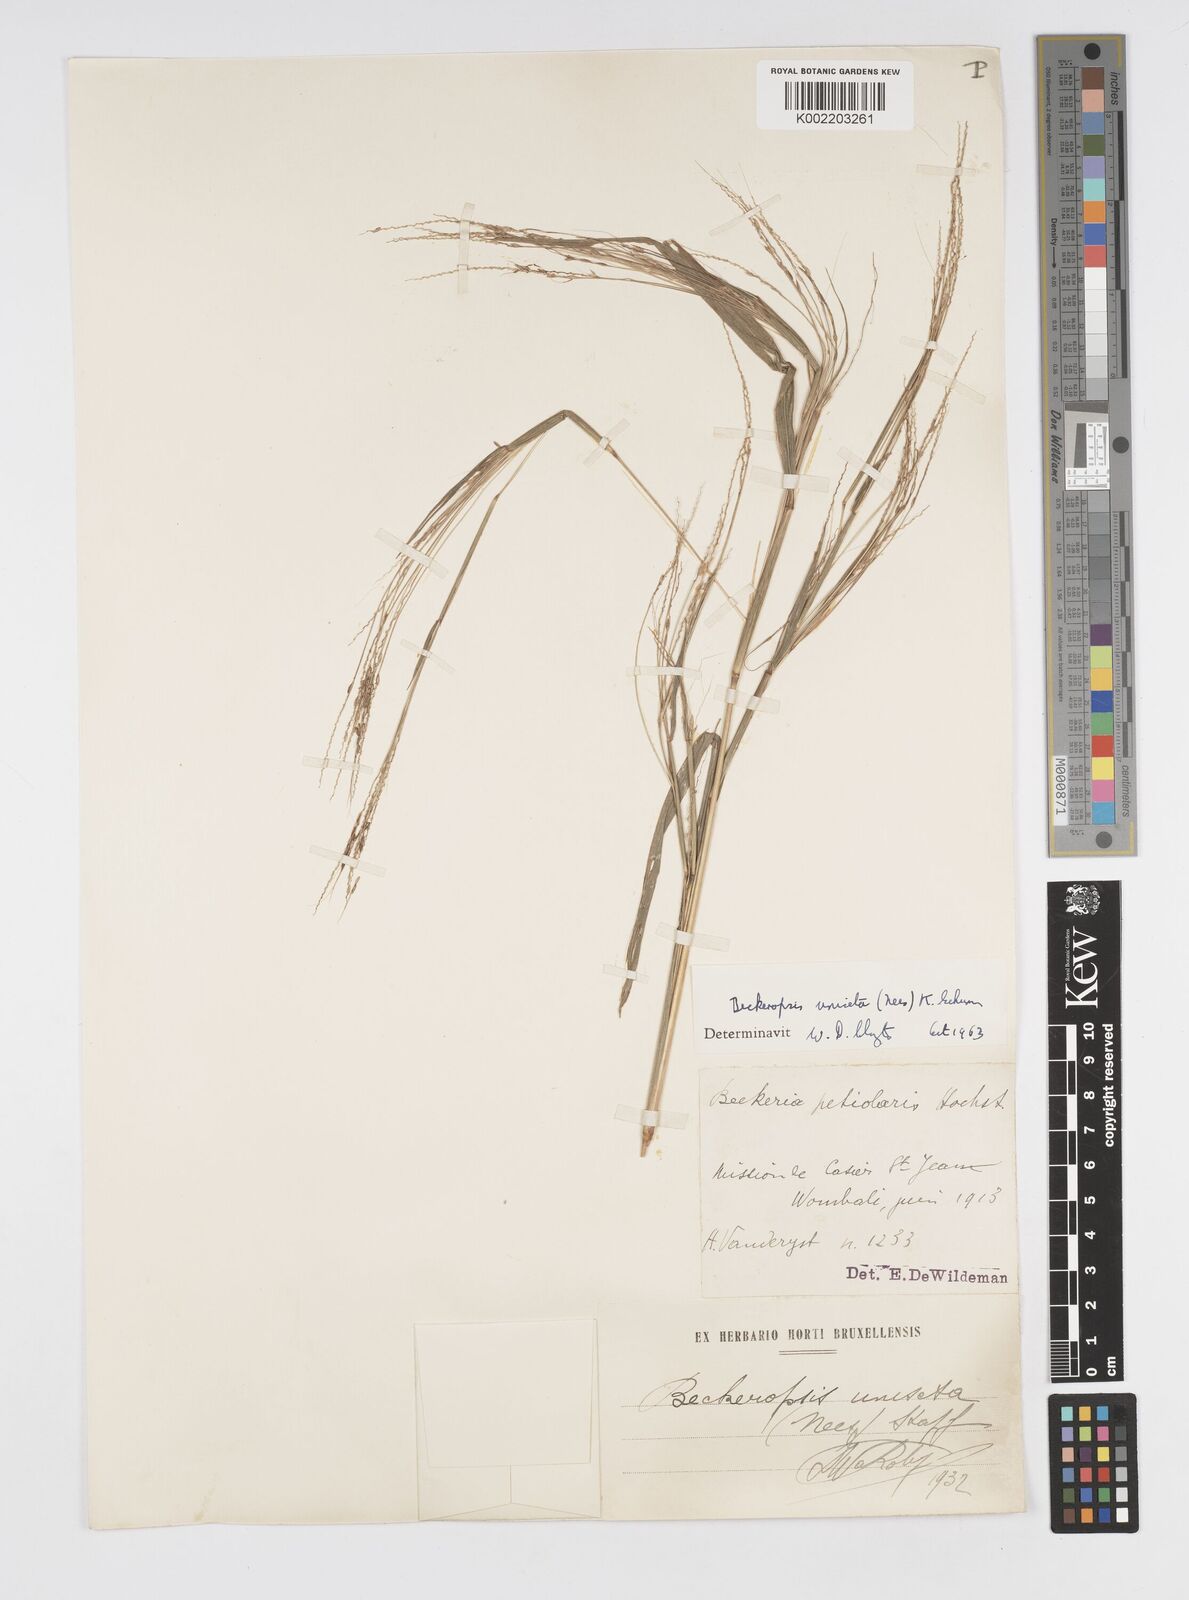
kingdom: Plantae
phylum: Tracheophyta
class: Liliopsida
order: Poales
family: Poaceae
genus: Cenchrus
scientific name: Cenchrus unisetus
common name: Natal grass
